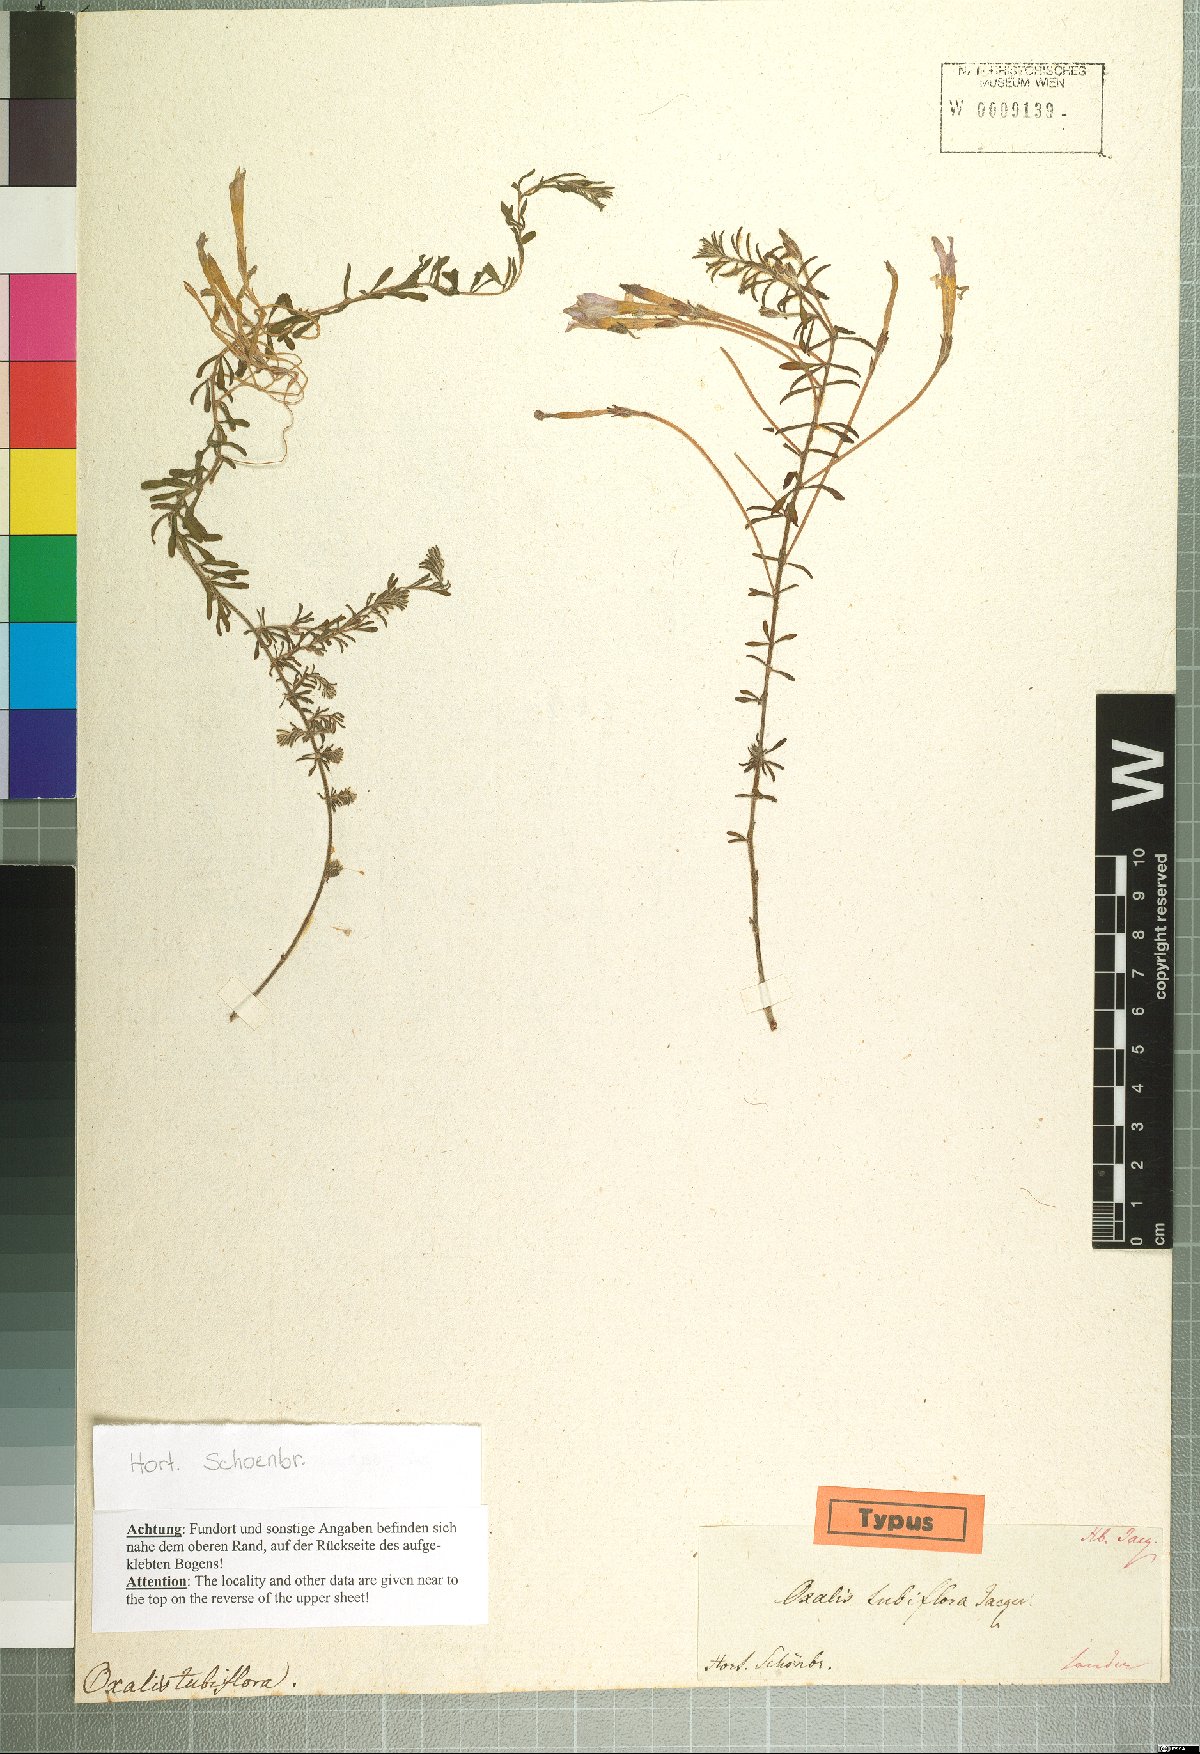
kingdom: Plantae
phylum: Tracheophyta
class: Magnoliopsida
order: Oxalidales
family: Oxalidaceae
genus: Oxalis
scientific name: Oxalis hirta
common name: Tropical woodsorrel
